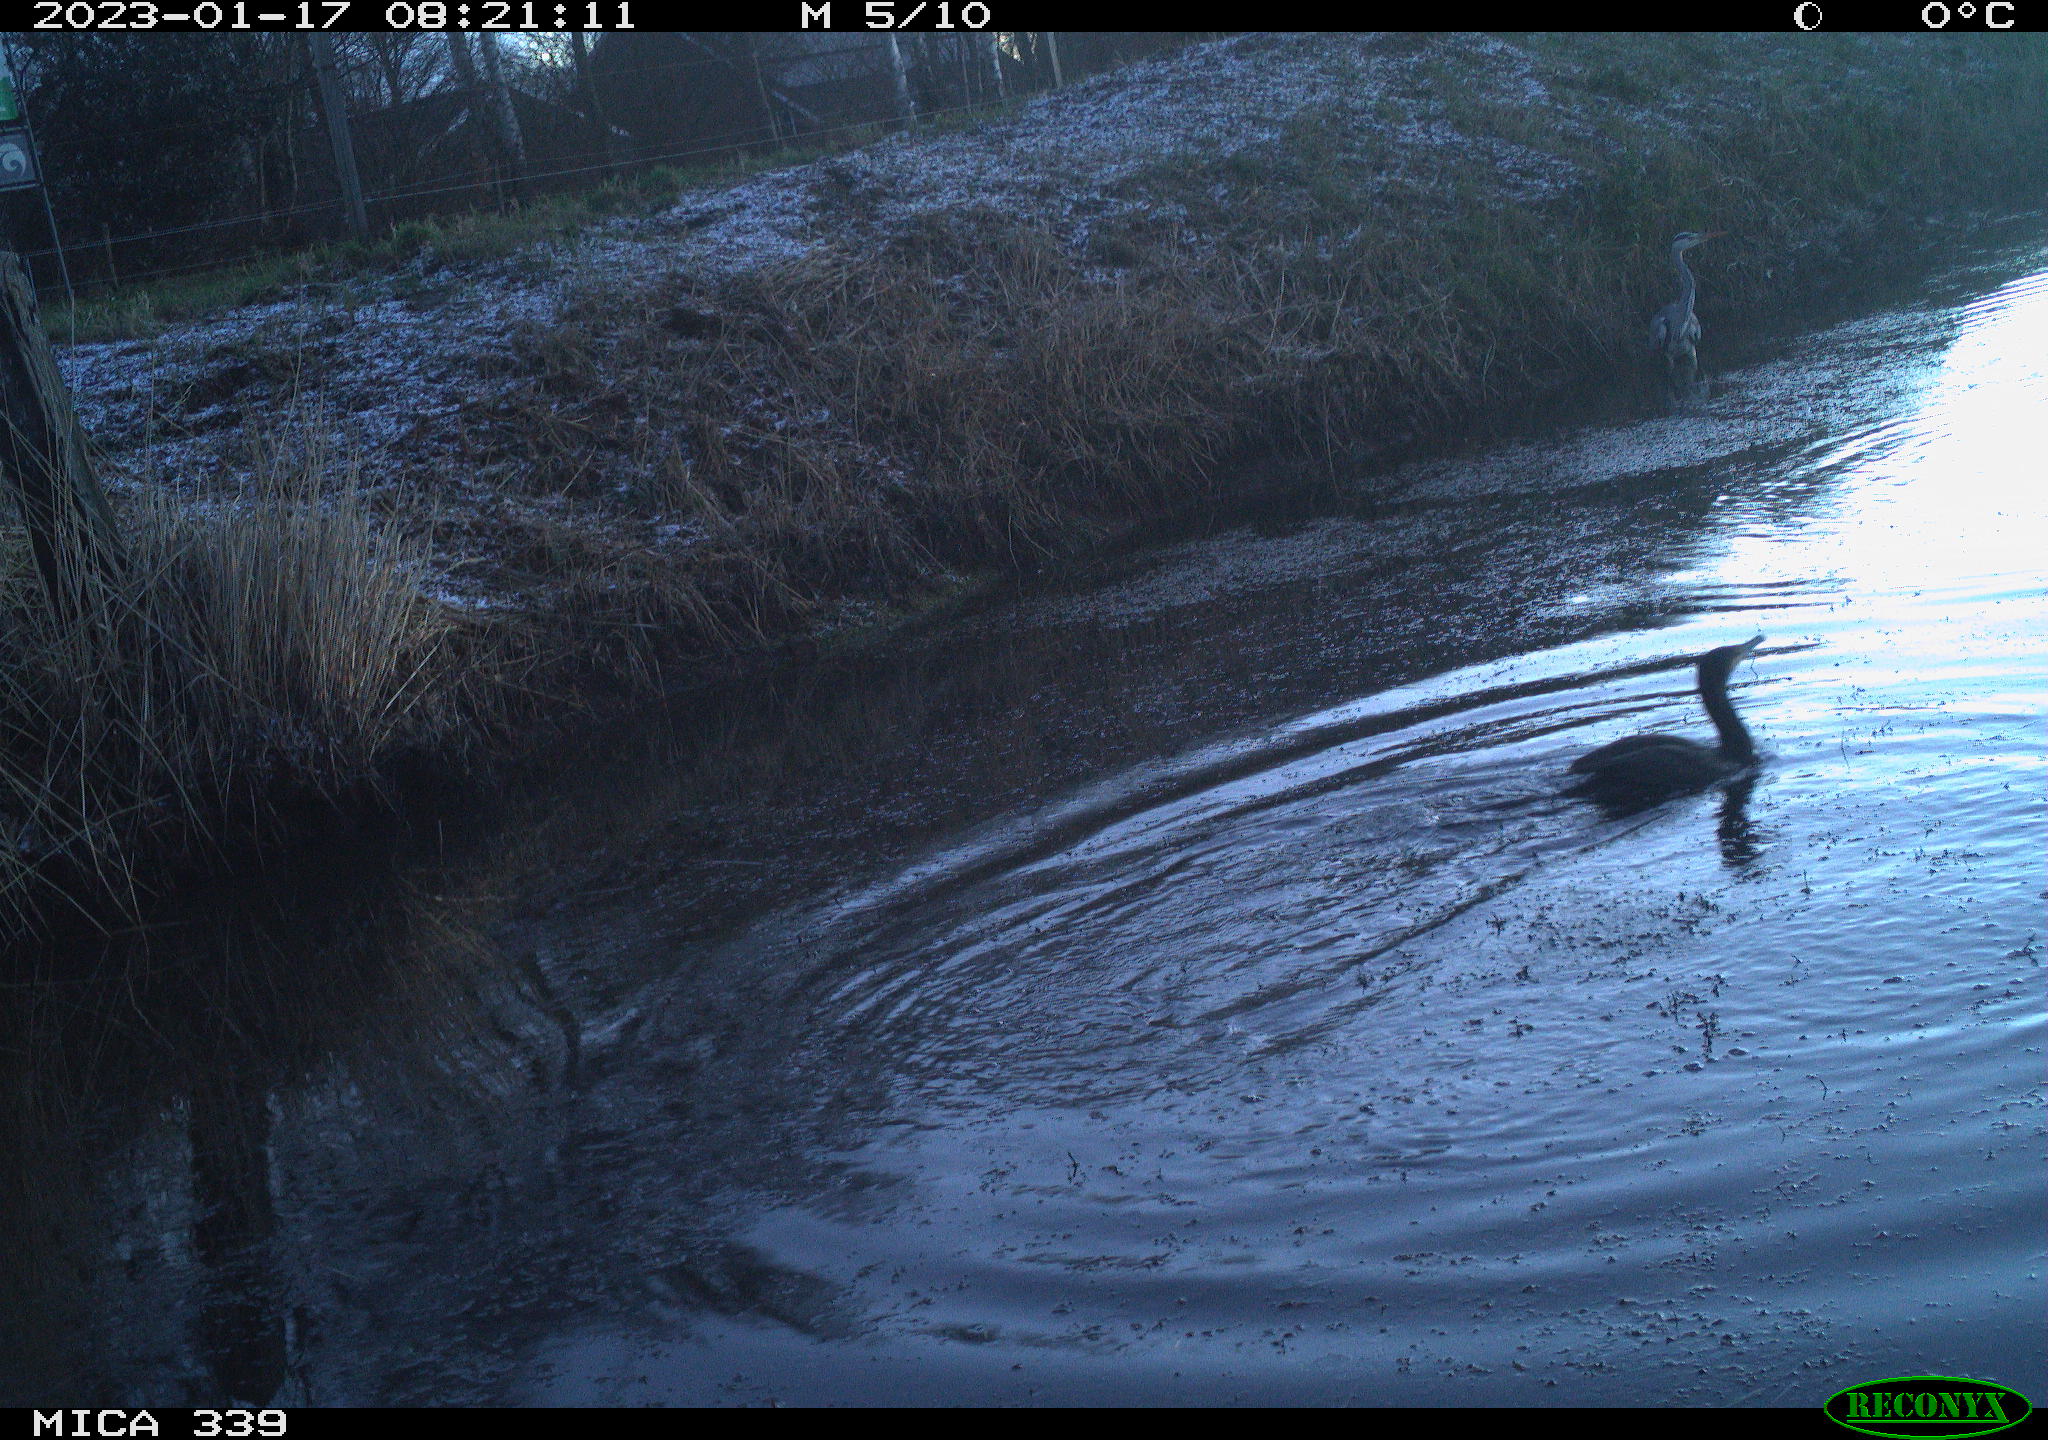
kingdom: Animalia
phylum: Chordata
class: Aves
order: Pelecaniformes
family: Ardeidae
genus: Ardea
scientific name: Ardea cinerea
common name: Grey heron
